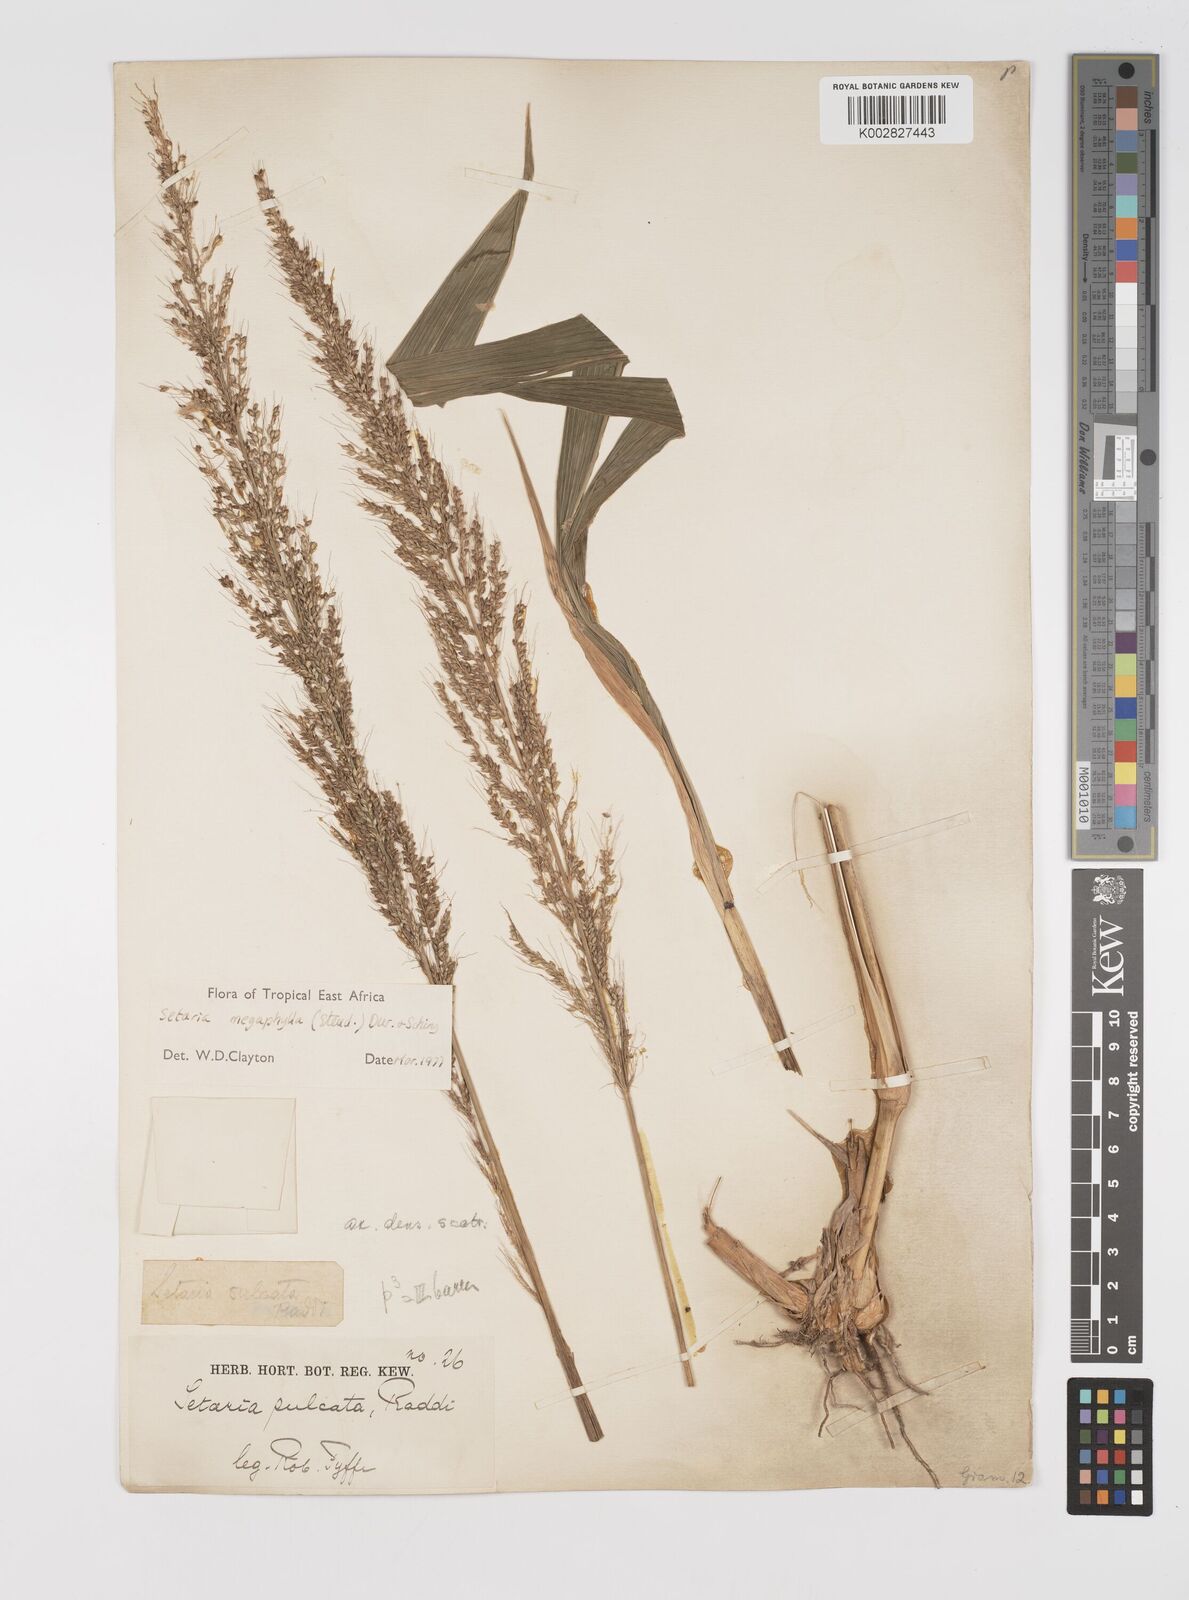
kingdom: Plantae
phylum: Tracheophyta
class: Liliopsida
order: Poales
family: Poaceae
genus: Setaria
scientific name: Setaria megaphylla
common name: Bigleaf bristlegrass
